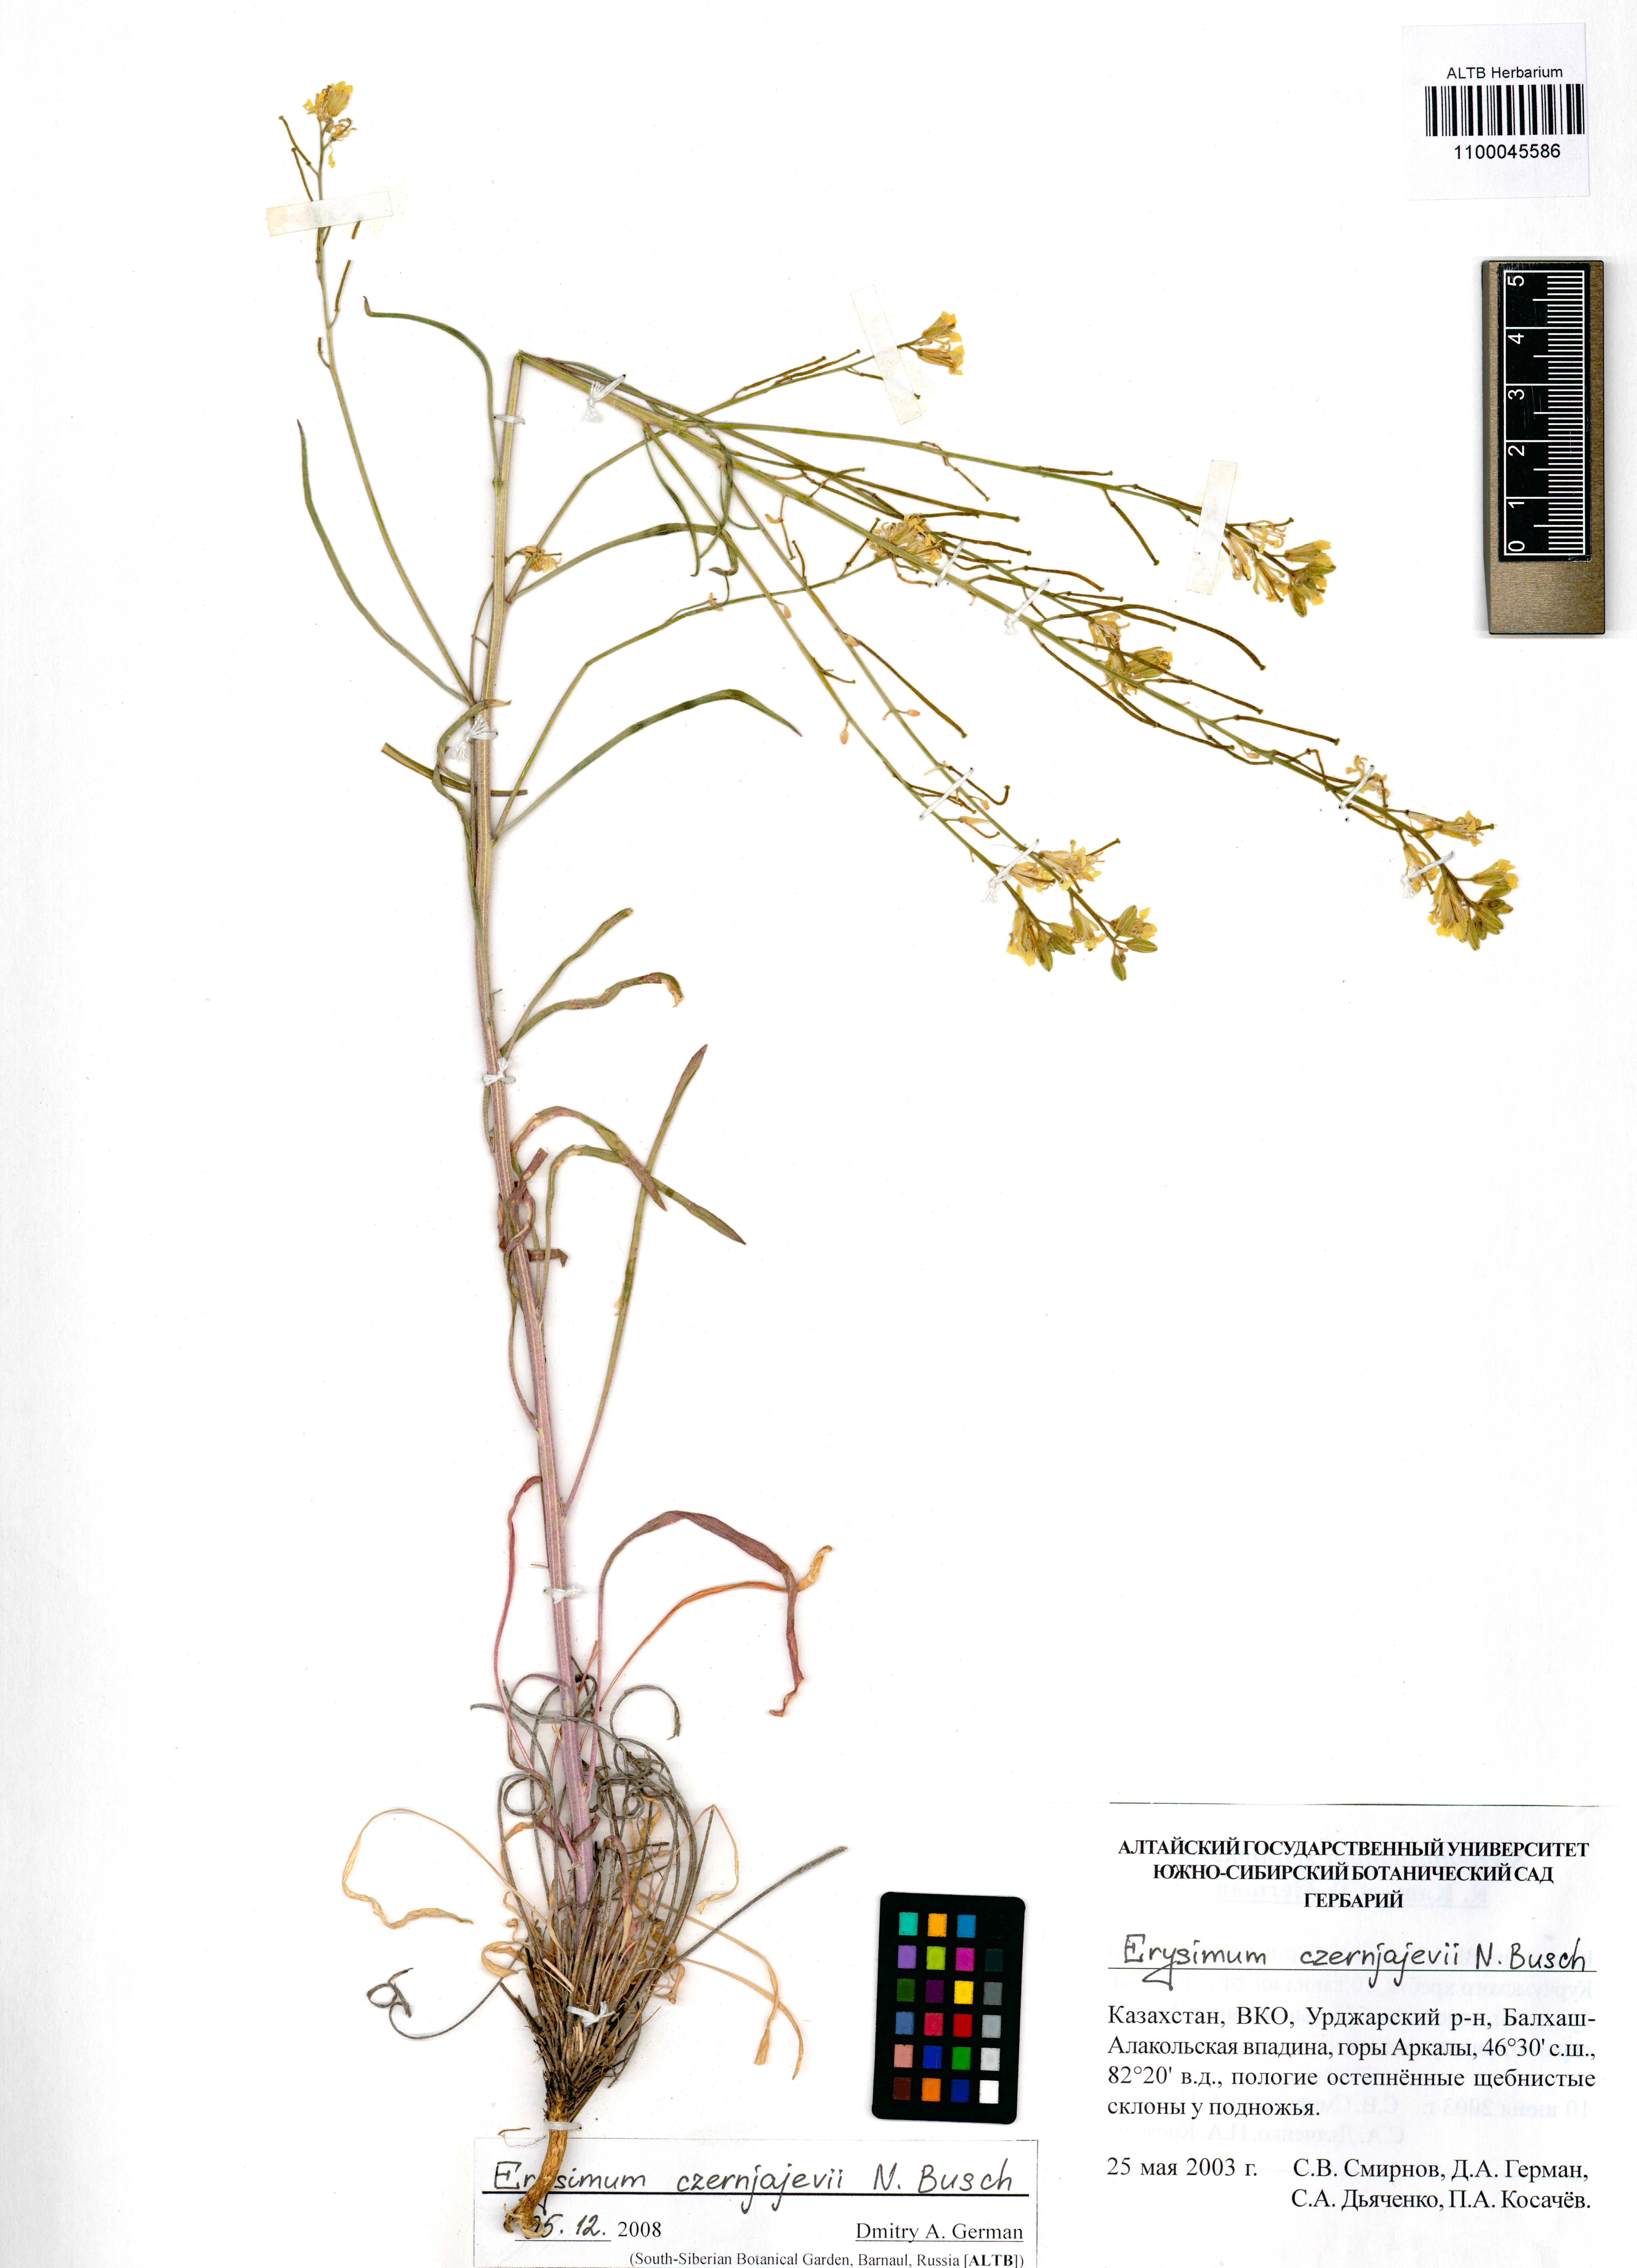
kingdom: Plantae
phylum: Tracheophyta
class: Magnoliopsida
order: Brassicales
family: Brassicaceae
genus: Erysimum
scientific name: Erysimum czernjajevii
